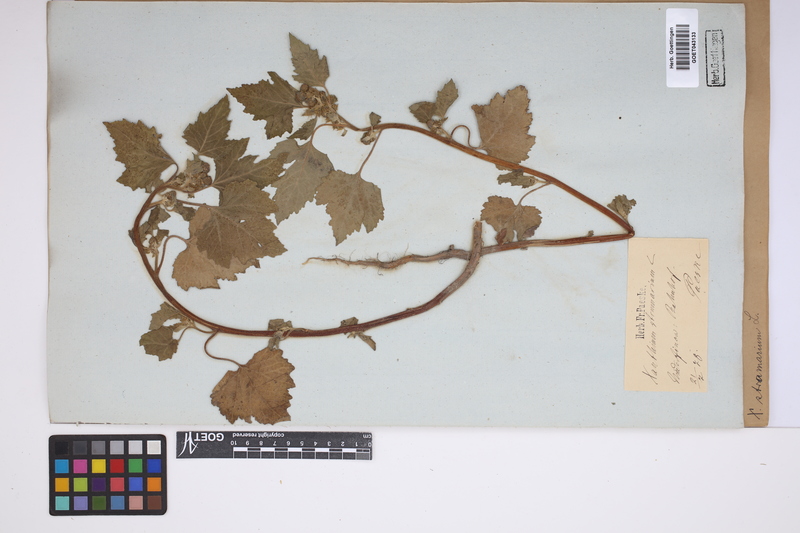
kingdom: Plantae
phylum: Tracheophyta
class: Magnoliopsida
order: Asterales
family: Asteraceae
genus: Xanthium
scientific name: Xanthium strumarium
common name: Rough cocklebur
